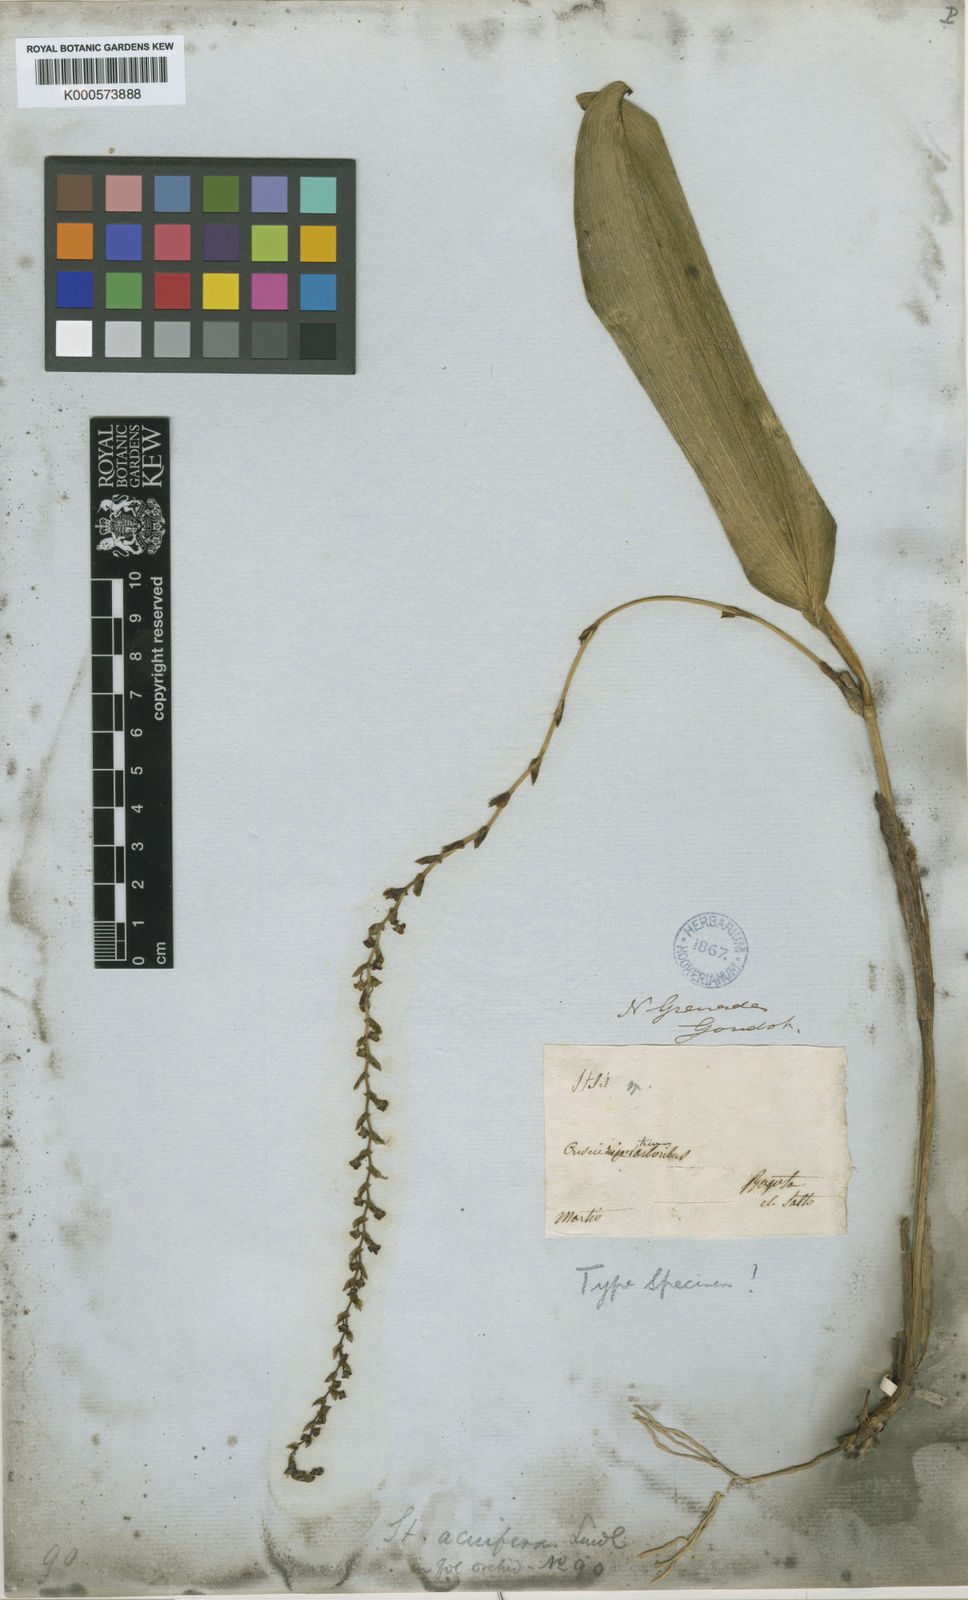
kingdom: Plantae
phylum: Tracheophyta
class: Liliopsida
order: Asparagales
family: Orchidaceae
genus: Stelis
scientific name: Stelis acuifera
